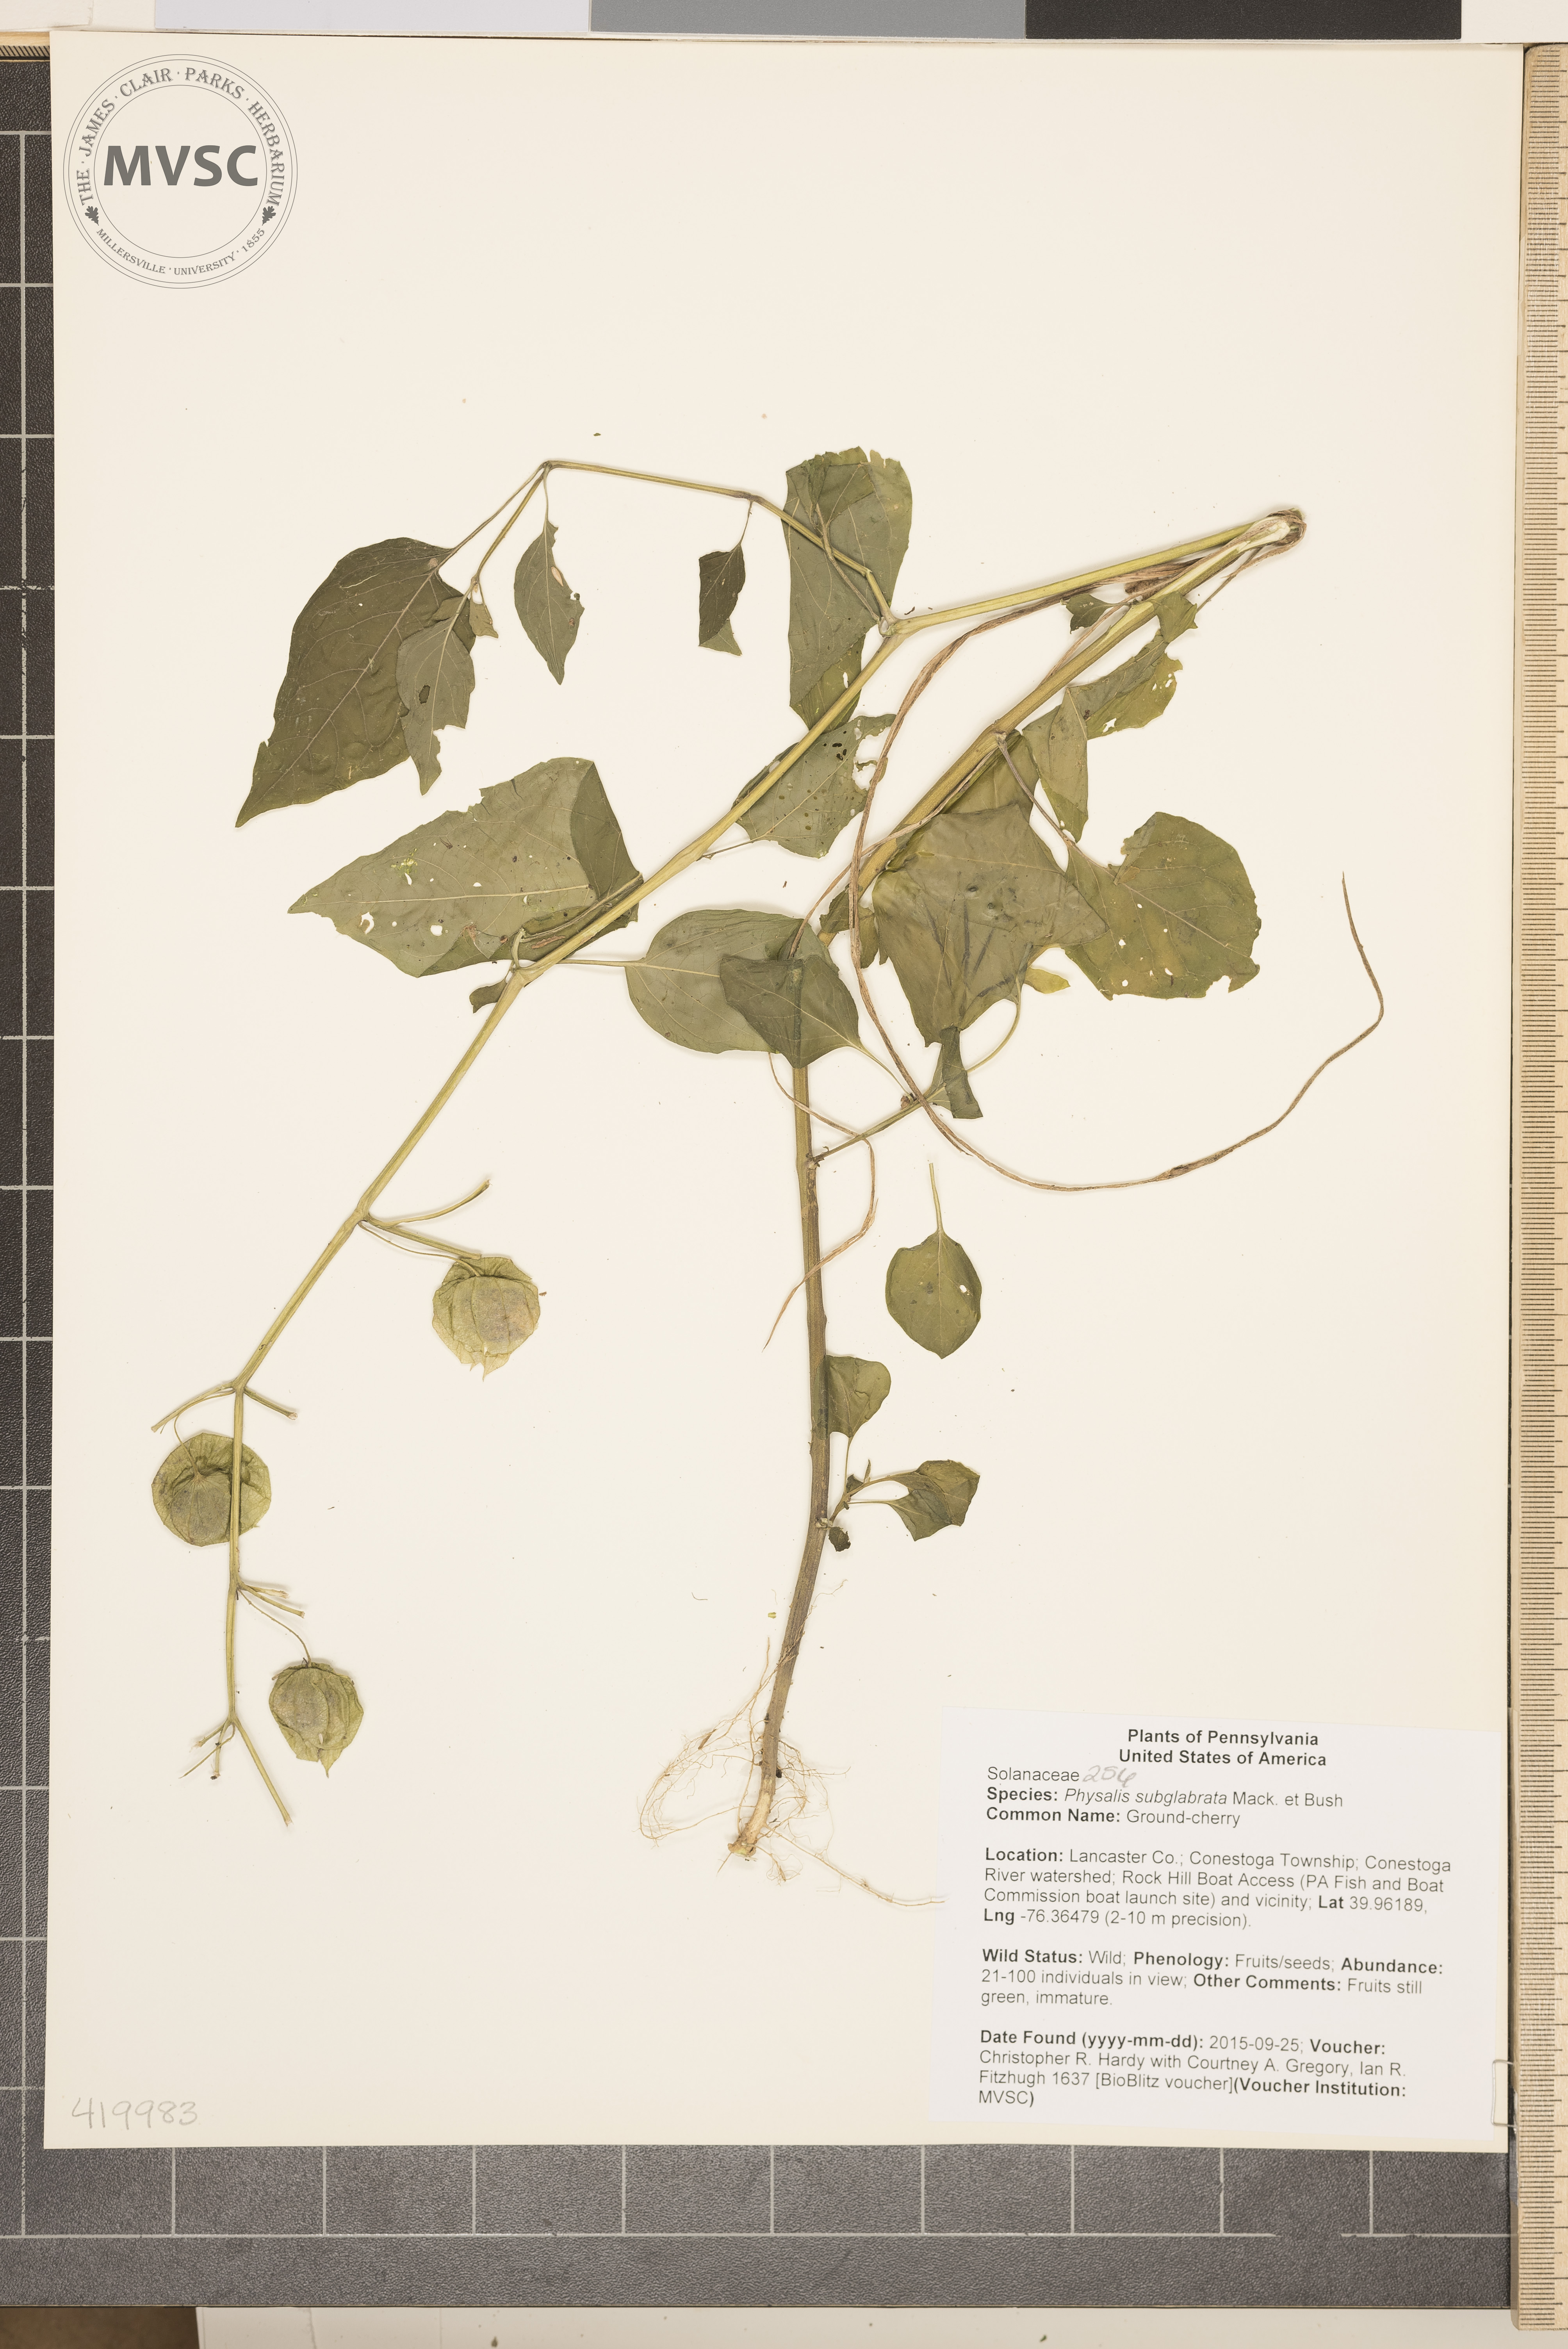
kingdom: Plantae
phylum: Tracheophyta
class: Magnoliopsida
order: Solanales
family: Solanaceae
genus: Physalis
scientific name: Physalis longifolia
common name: Ground-cherry
